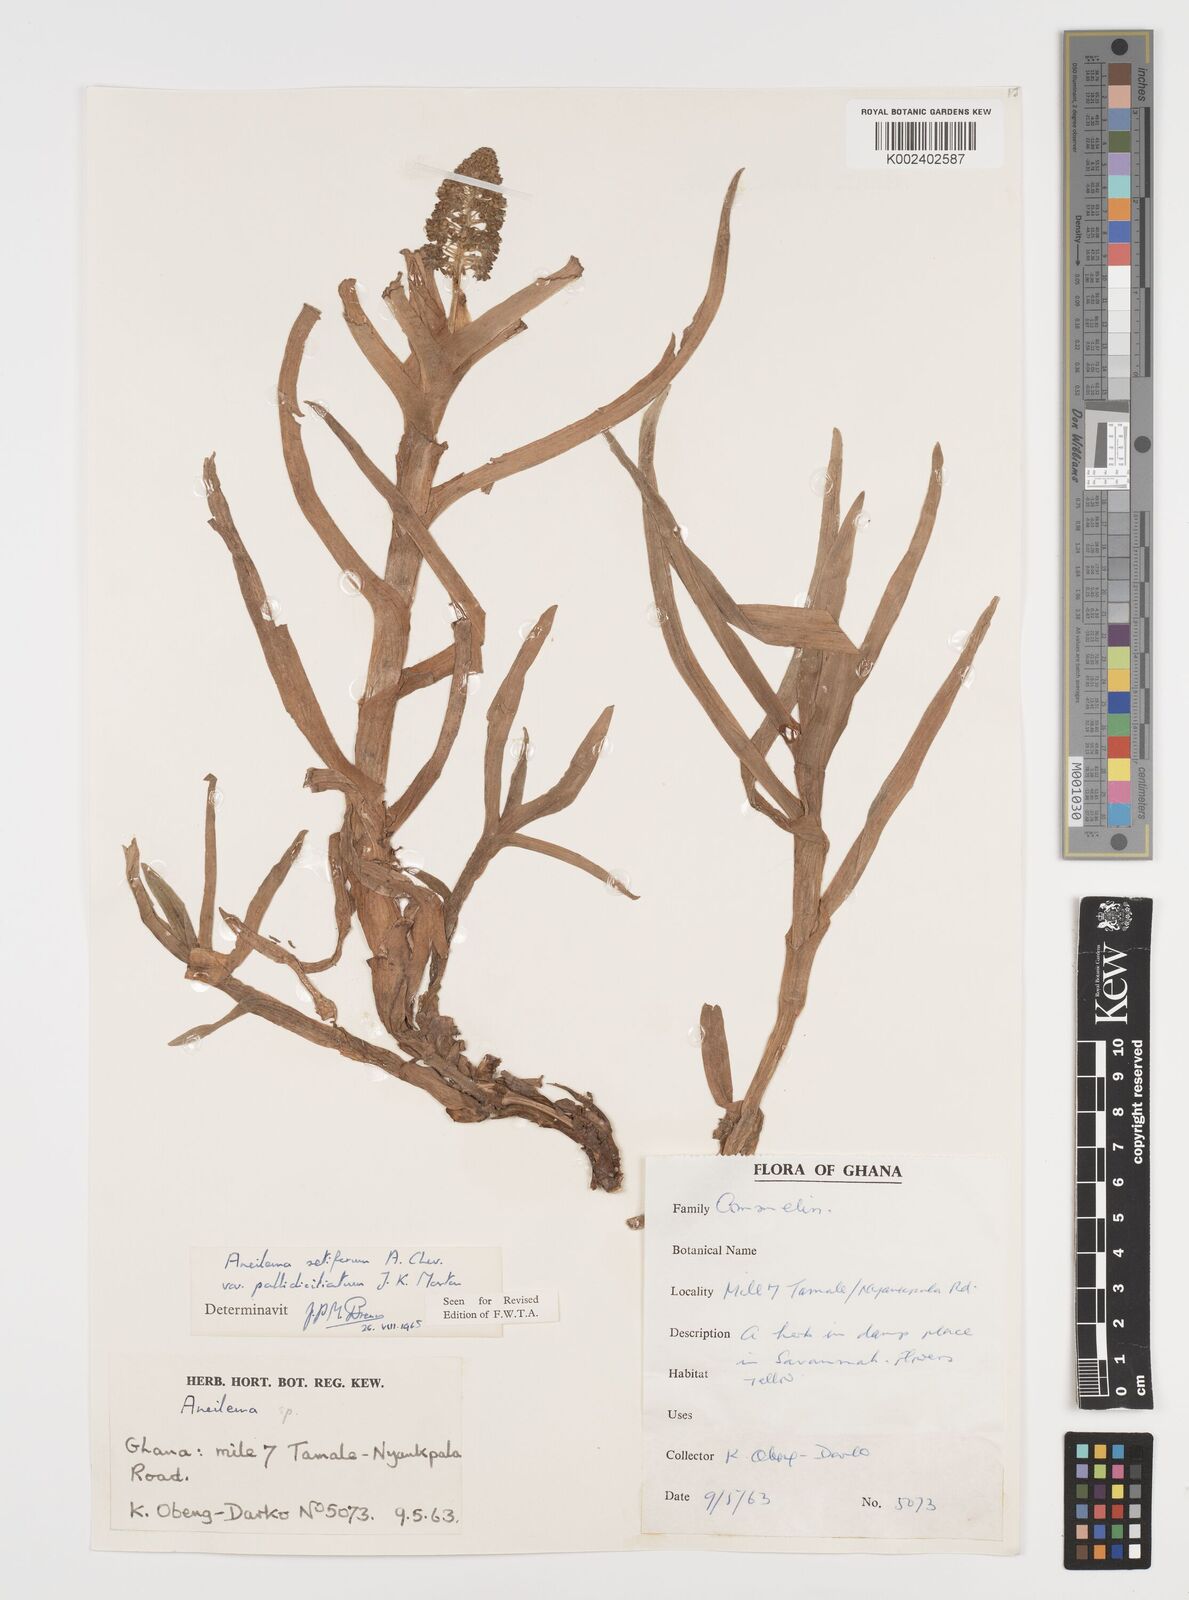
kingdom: Plantae
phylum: Tracheophyta
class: Liliopsida
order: Commelinales
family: Commelinaceae
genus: Aneilema
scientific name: Aneilema setiferum
